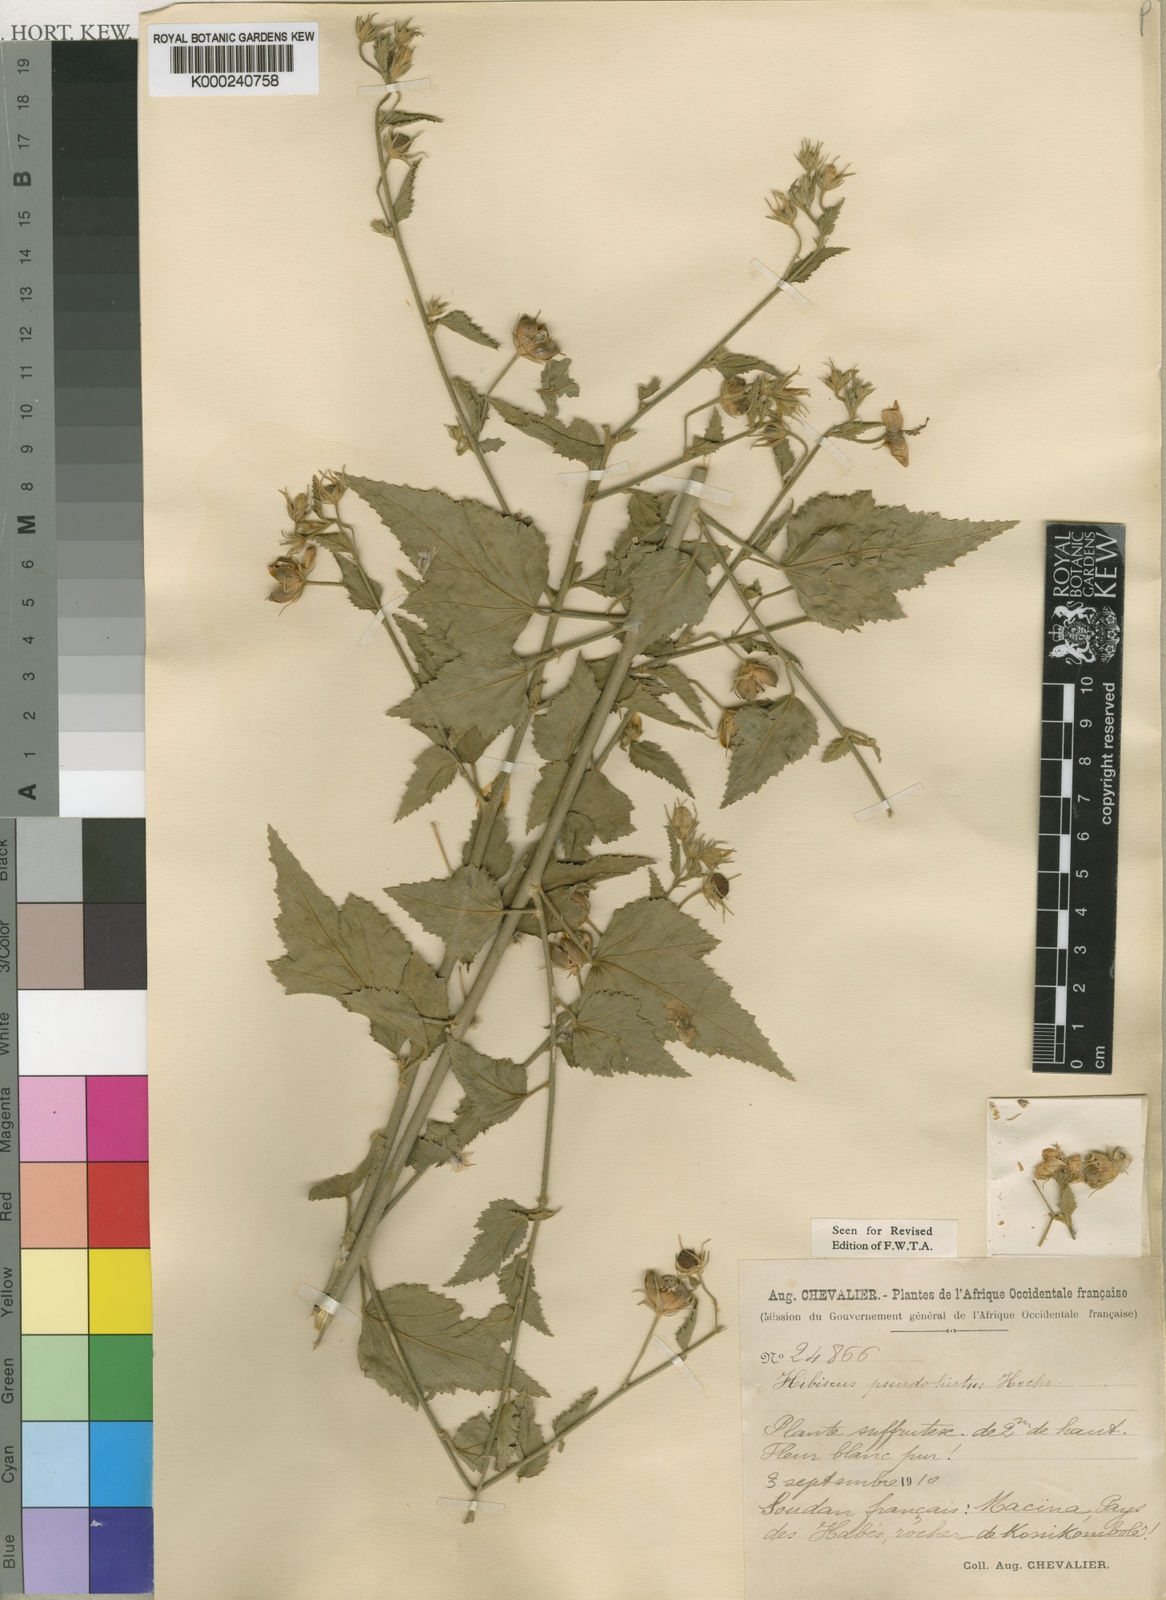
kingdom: Plantae
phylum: Tracheophyta
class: Magnoliopsida
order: Malvales
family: Malvaceae
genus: Hibiscus
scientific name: Hibiscus pseudohirtus
